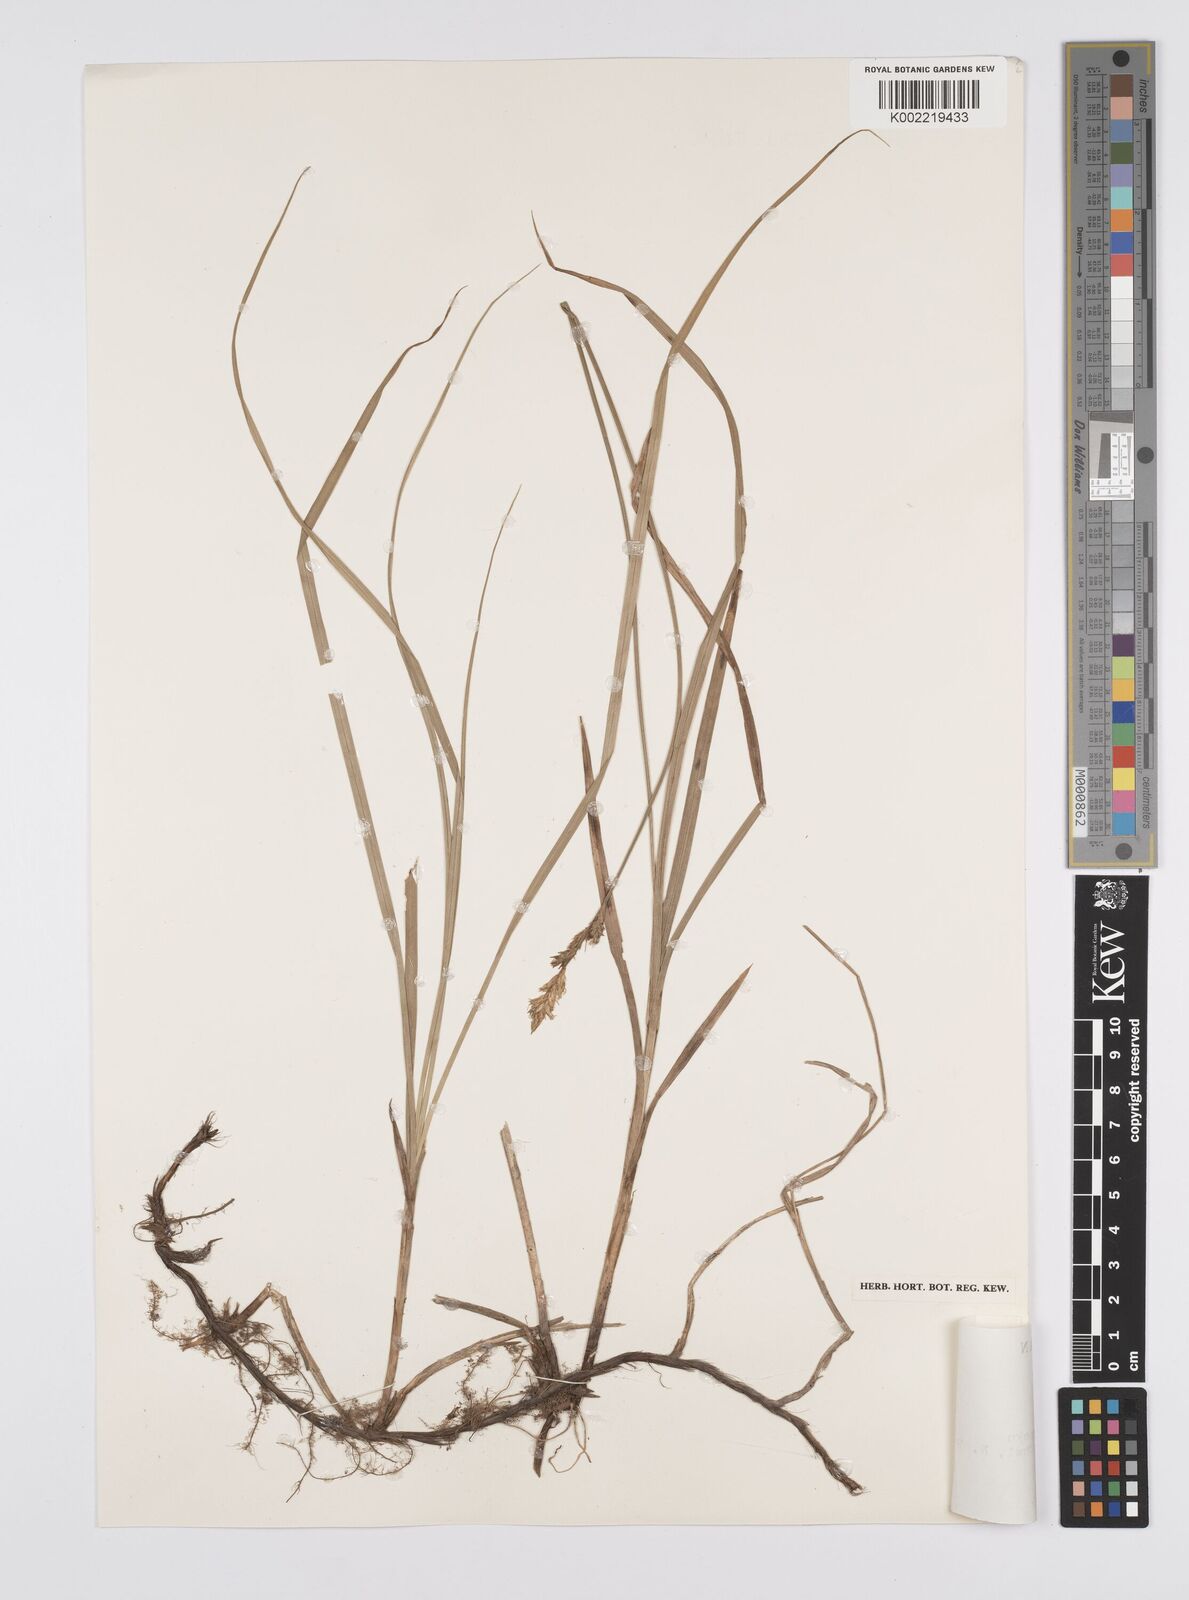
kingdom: Plantae
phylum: Tracheophyta
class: Liliopsida
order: Poales
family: Cyperaceae
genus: Carex
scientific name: Carex accrescens
